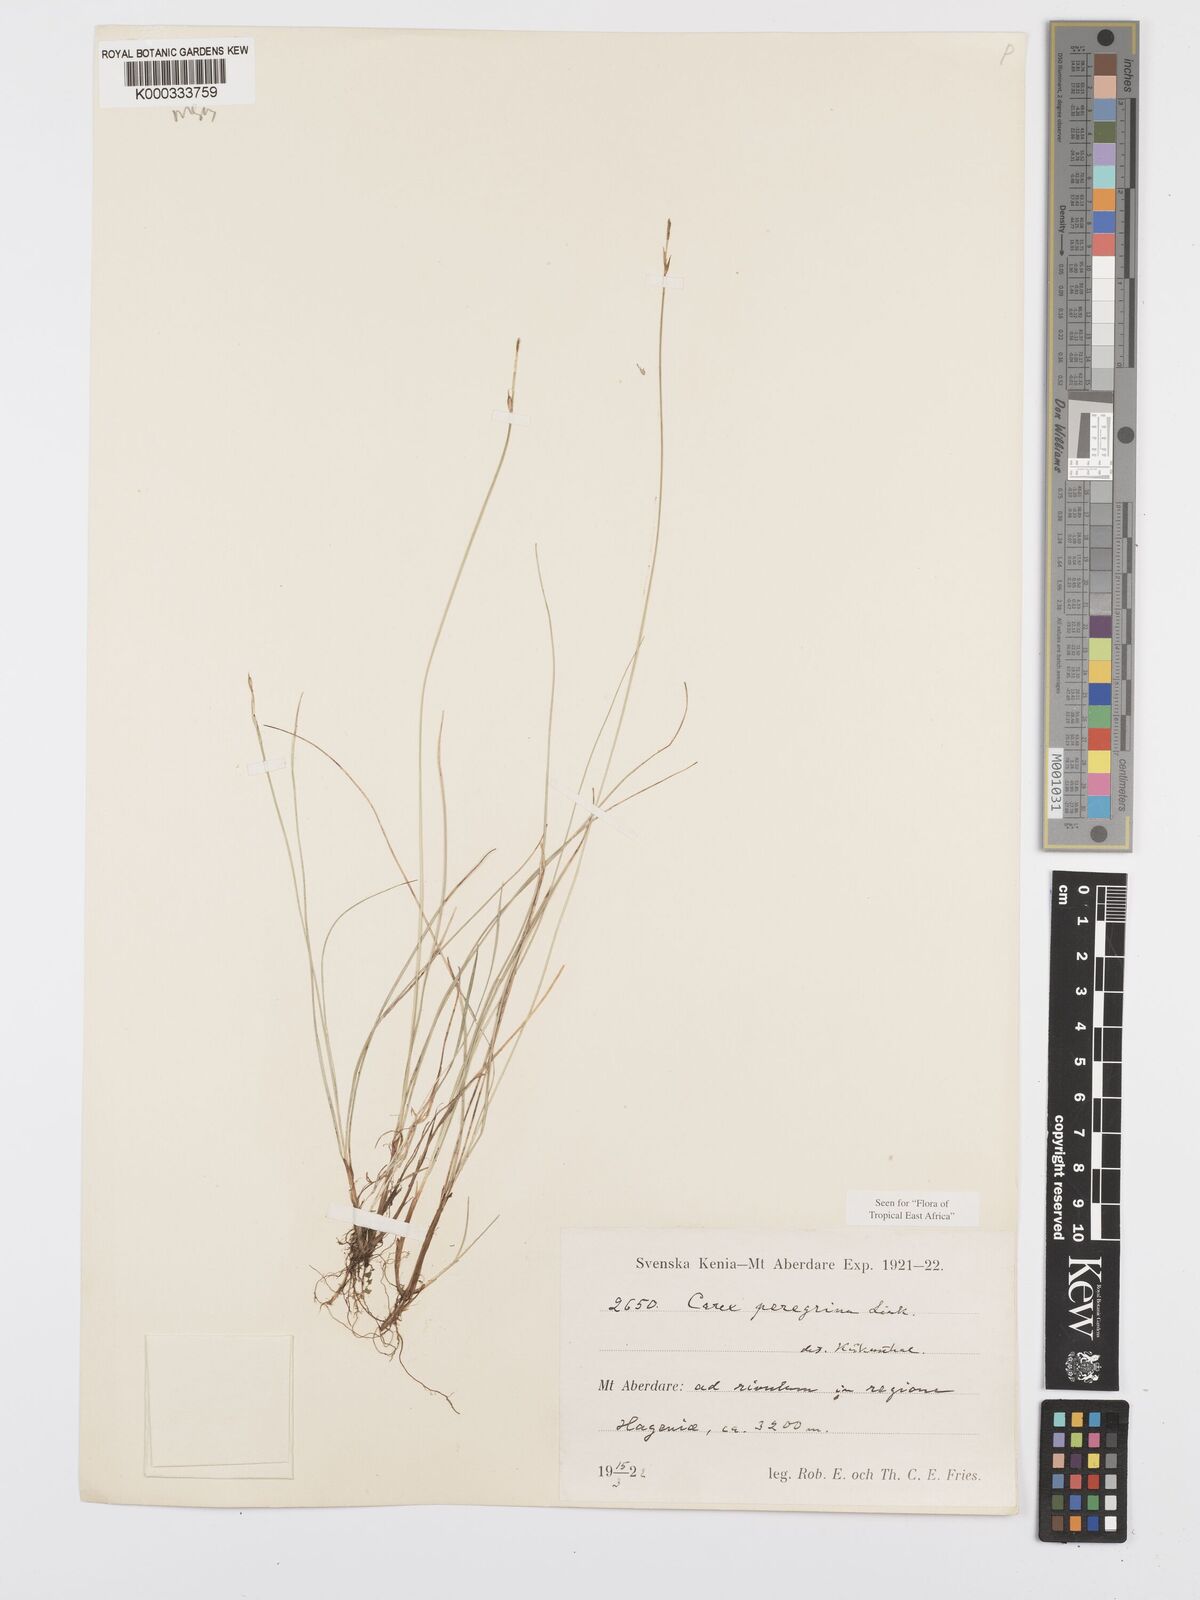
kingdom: Plantae
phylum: Tracheophyta
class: Liliopsida
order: Poales
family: Cyperaceae
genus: Carex
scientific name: Carex peregrina
